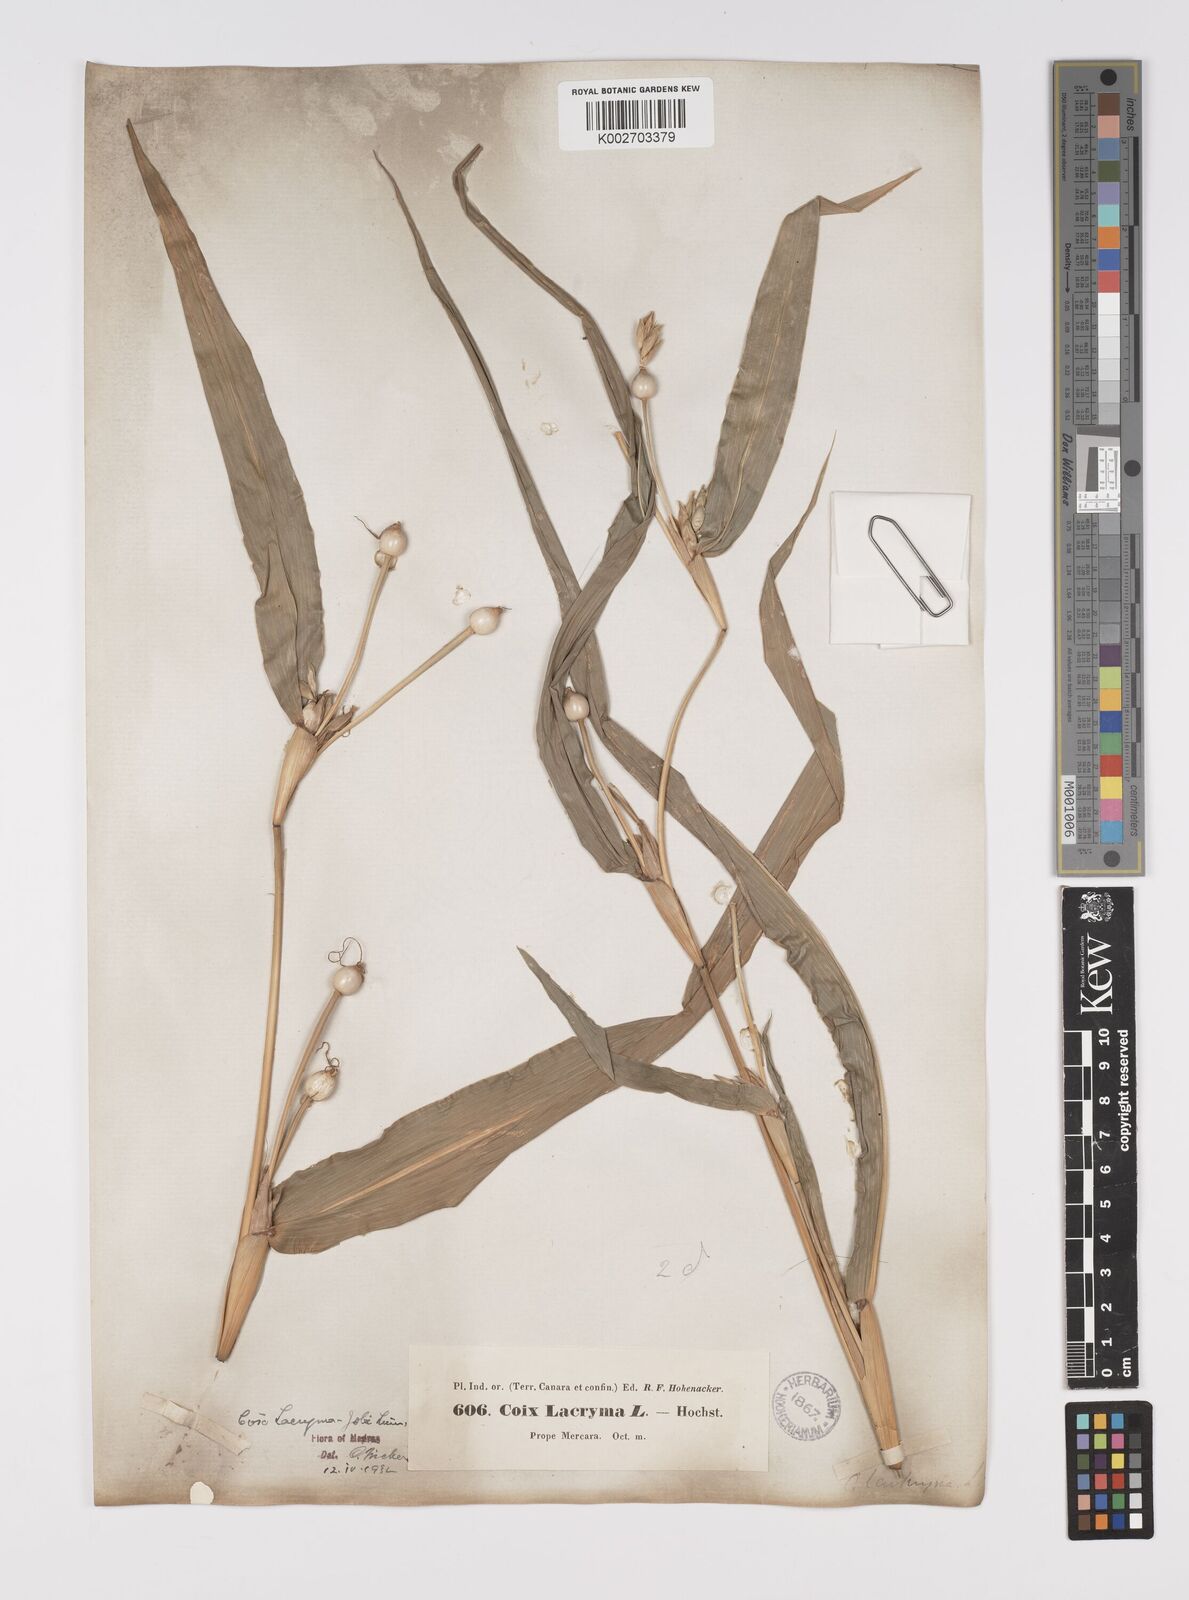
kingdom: Plantae
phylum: Tracheophyta
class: Liliopsida
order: Poales
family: Poaceae
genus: Coix
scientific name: Coix lacryma-jobi
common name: Job's tears
